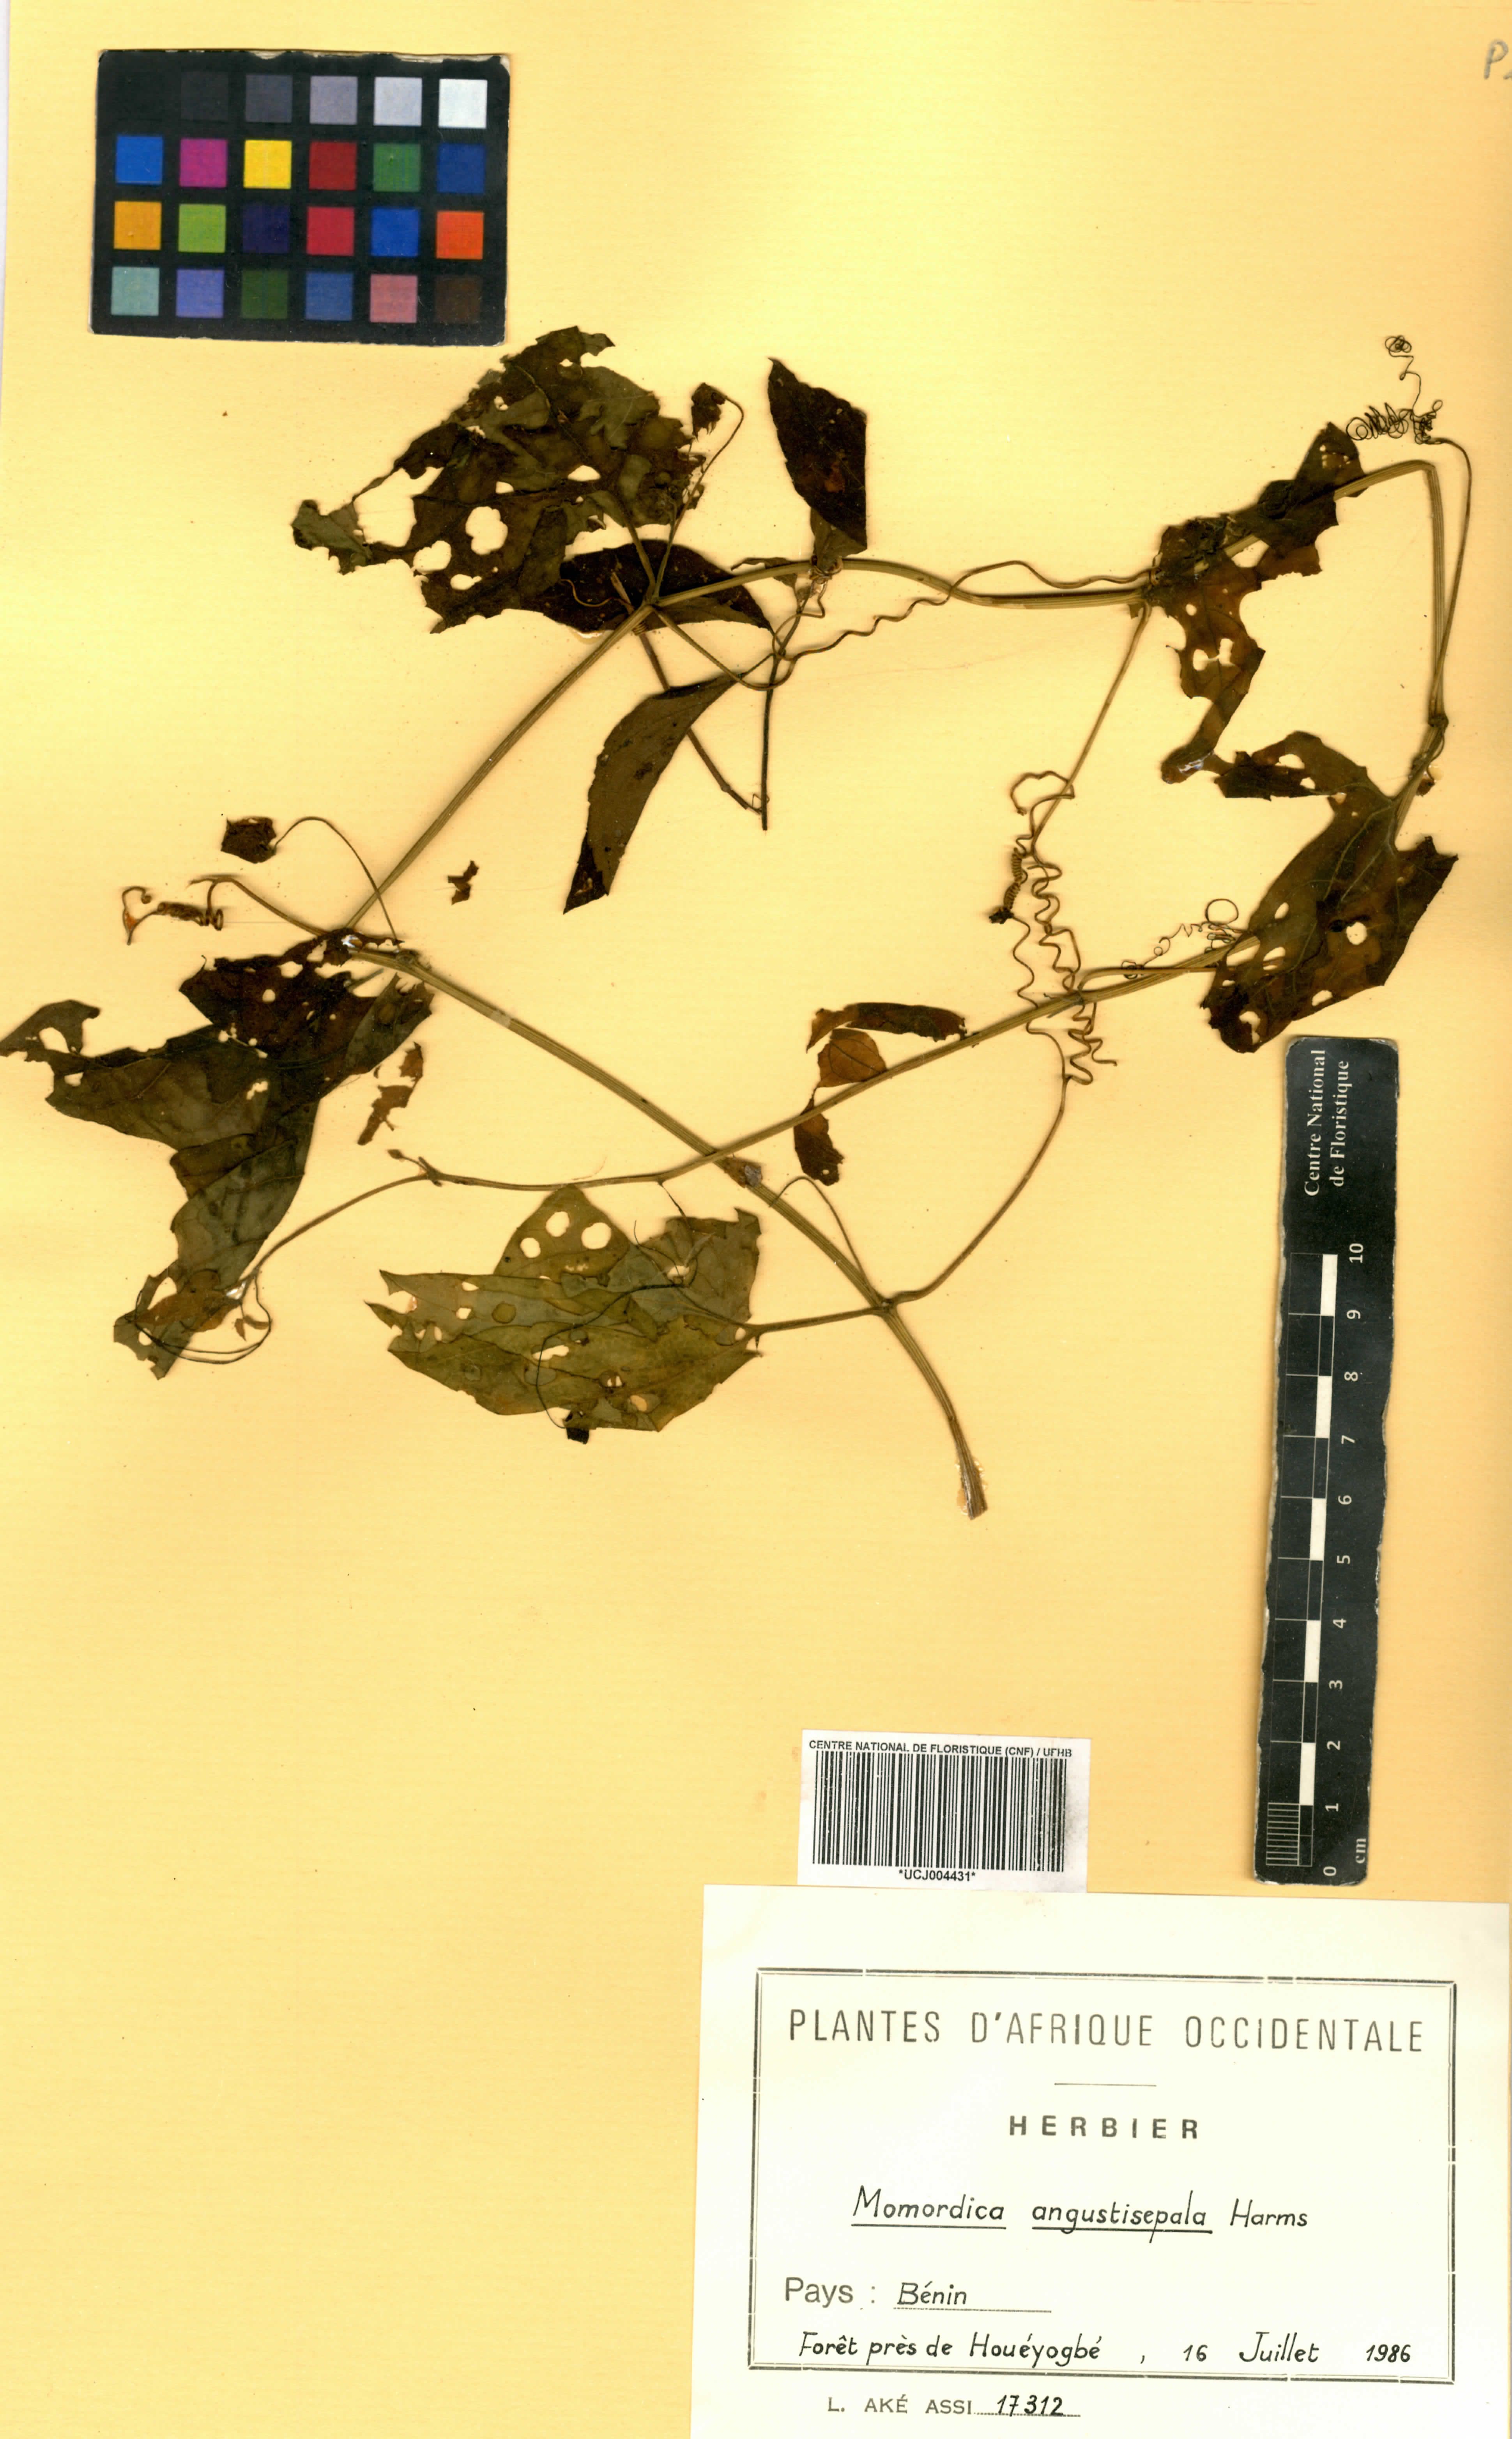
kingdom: Plantae
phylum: Tracheophyta
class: Magnoliopsida
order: Cucurbitales
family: Cucurbitaceae
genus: Momordica
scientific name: Momordica angustisepala
